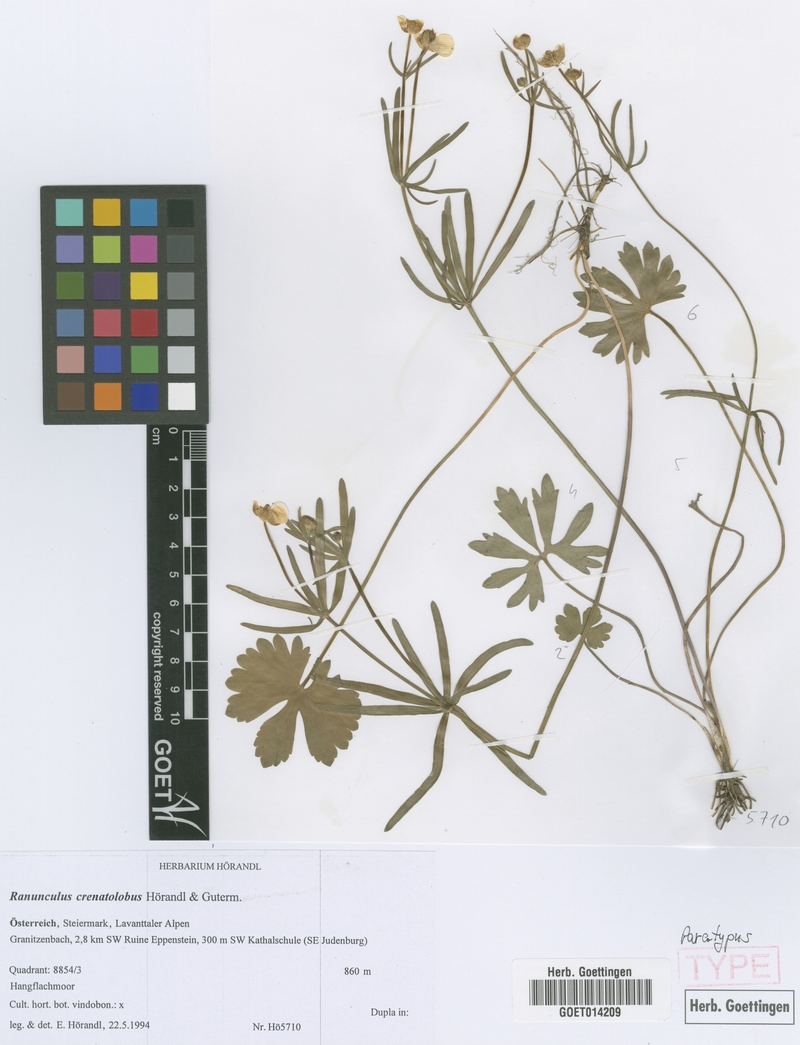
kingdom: Plantae
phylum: Tracheophyta
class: Magnoliopsida
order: Ranunculales
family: Ranunculaceae
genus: Ranunculus
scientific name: Ranunculus crenatolobus
